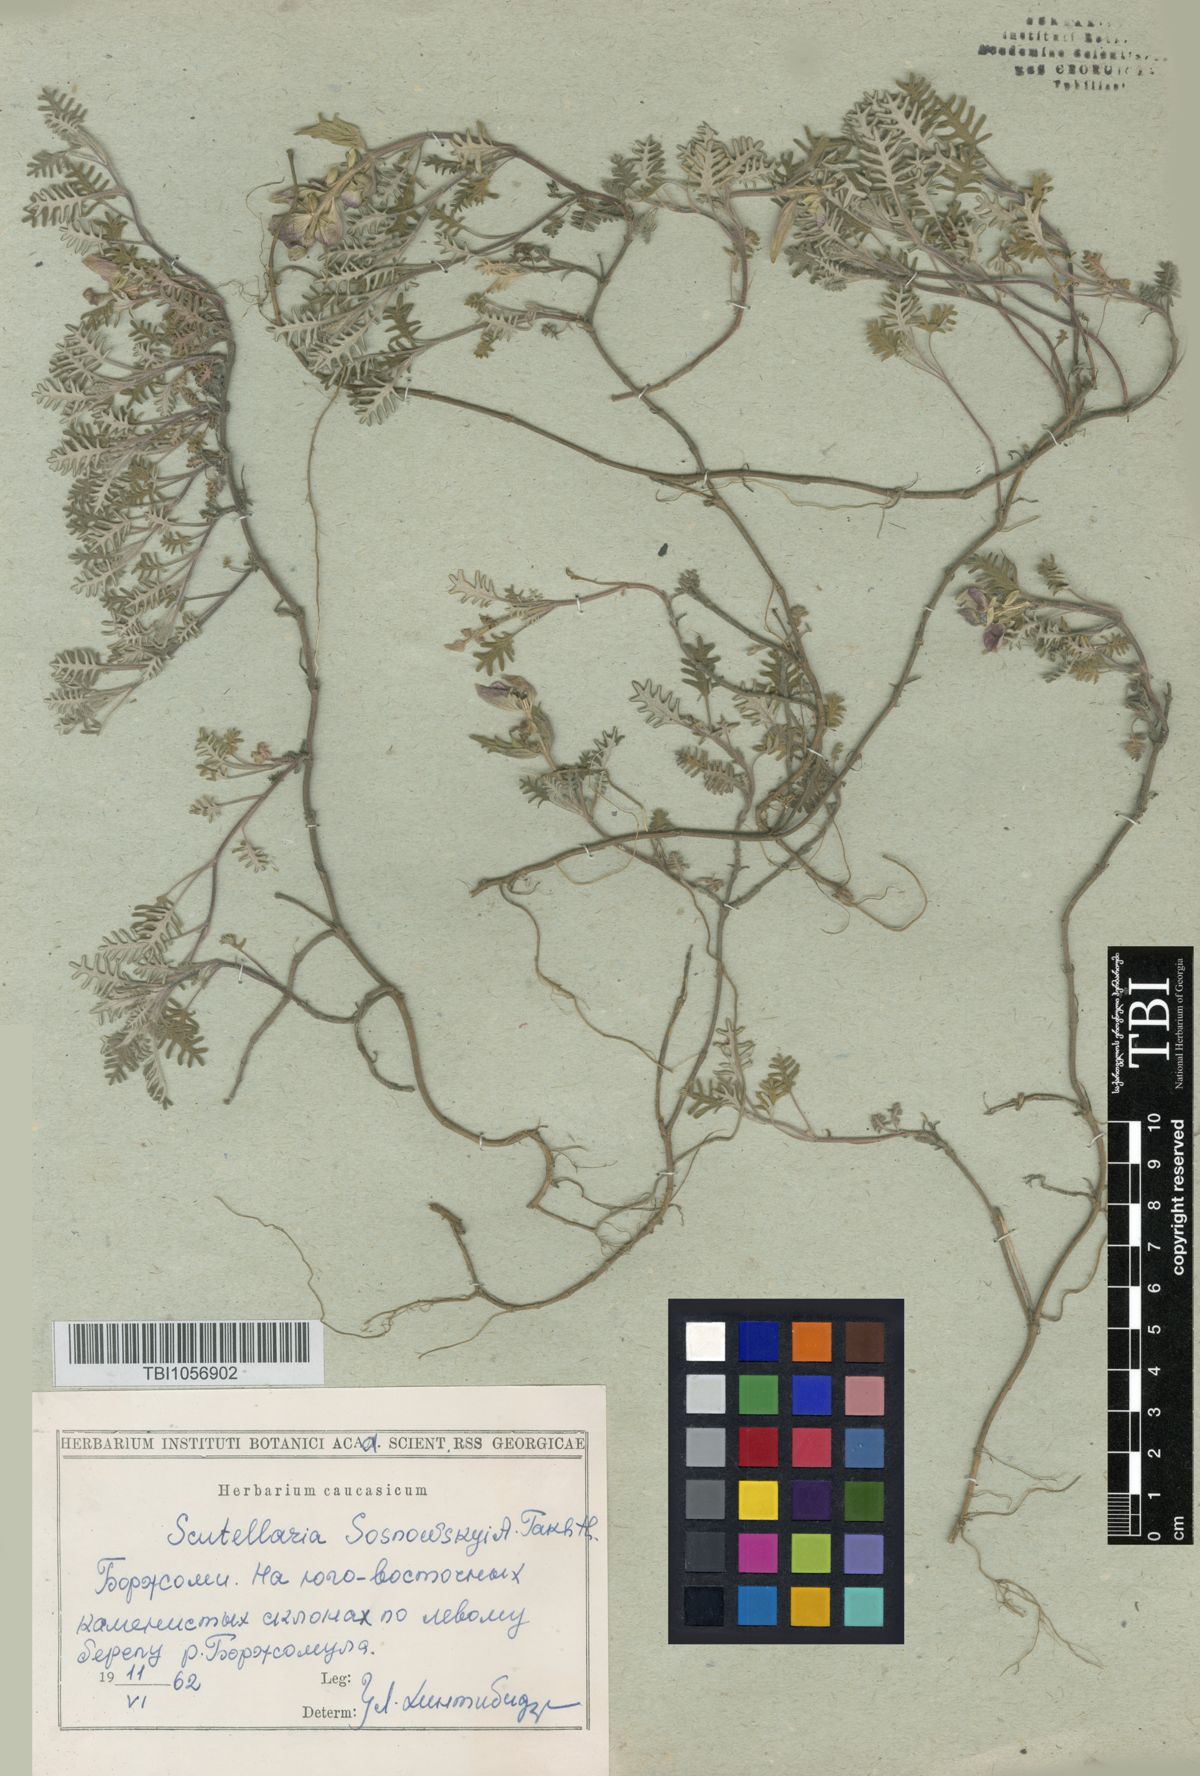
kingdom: Plantae
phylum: Tracheophyta
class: Magnoliopsida
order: Lamiales
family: Lamiaceae
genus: Scutellaria
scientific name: Scutellaria sosnowskyi
